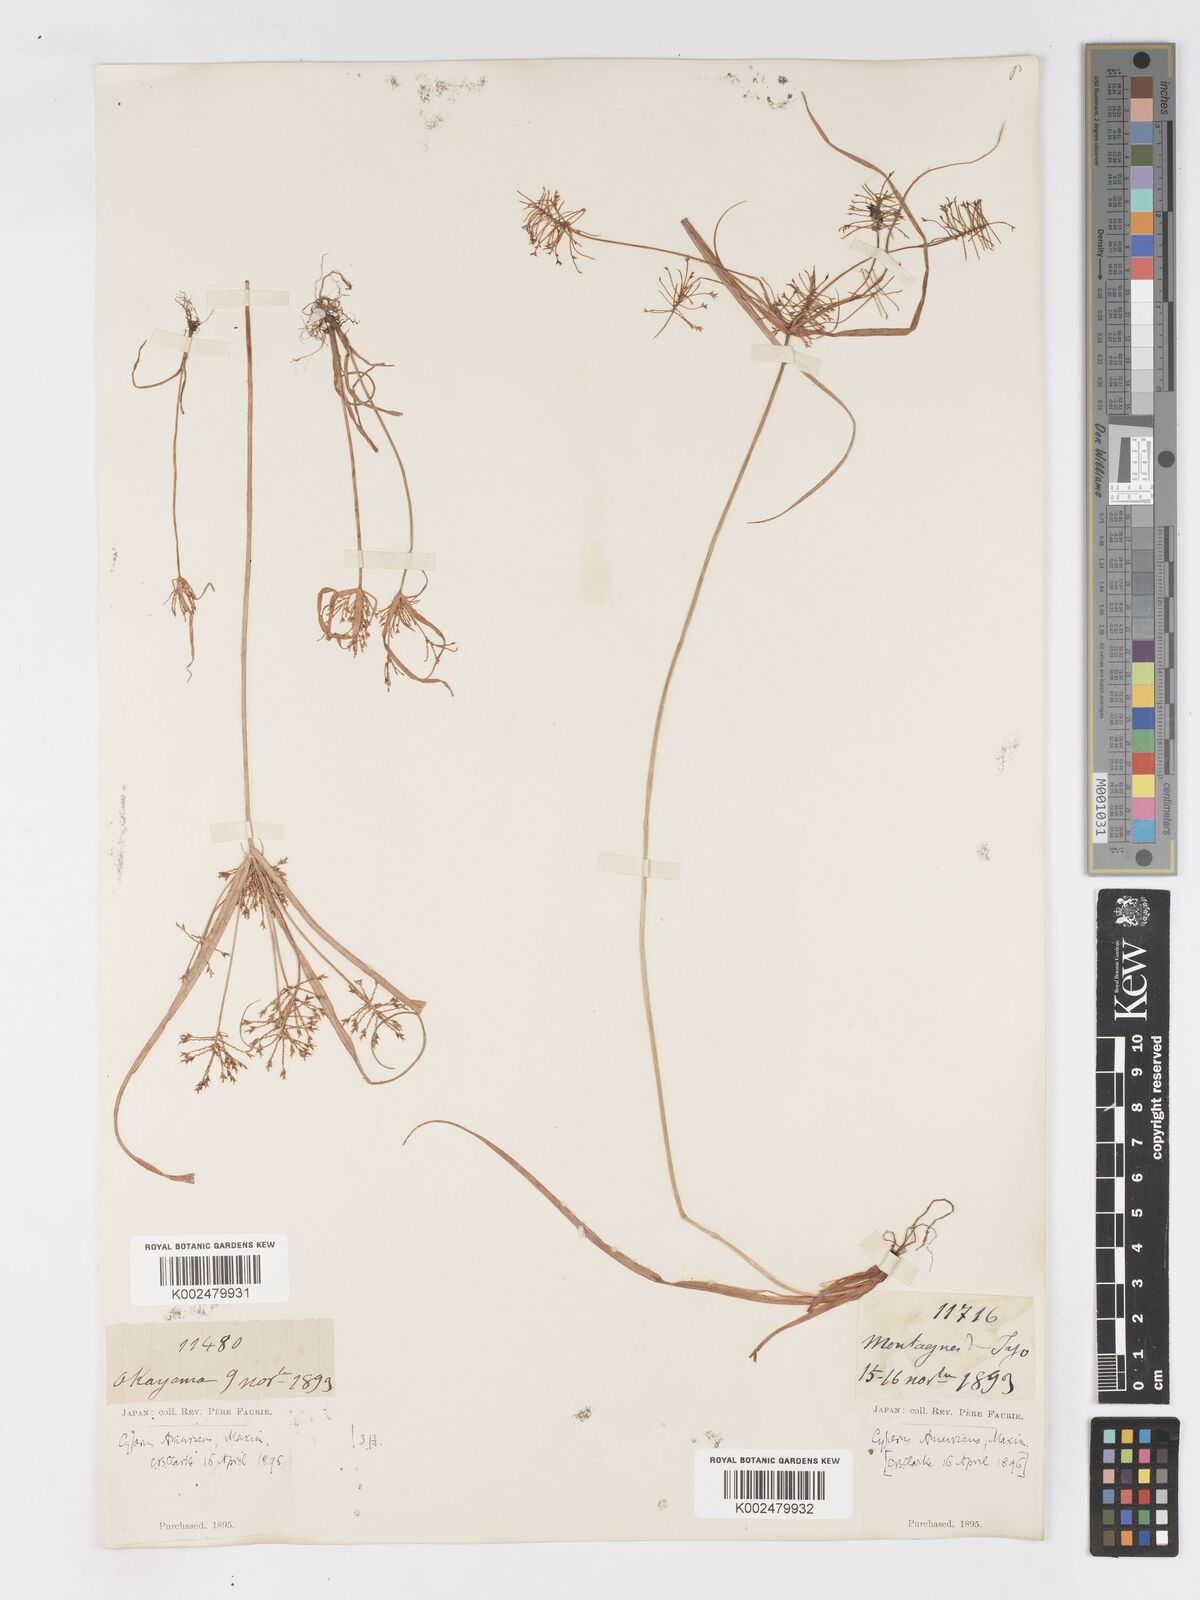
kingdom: Plantae
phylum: Tracheophyta
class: Liliopsida
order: Poales
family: Cyperaceae
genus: Cyperus
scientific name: Cyperus amuricus
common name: Asian flatsedge
